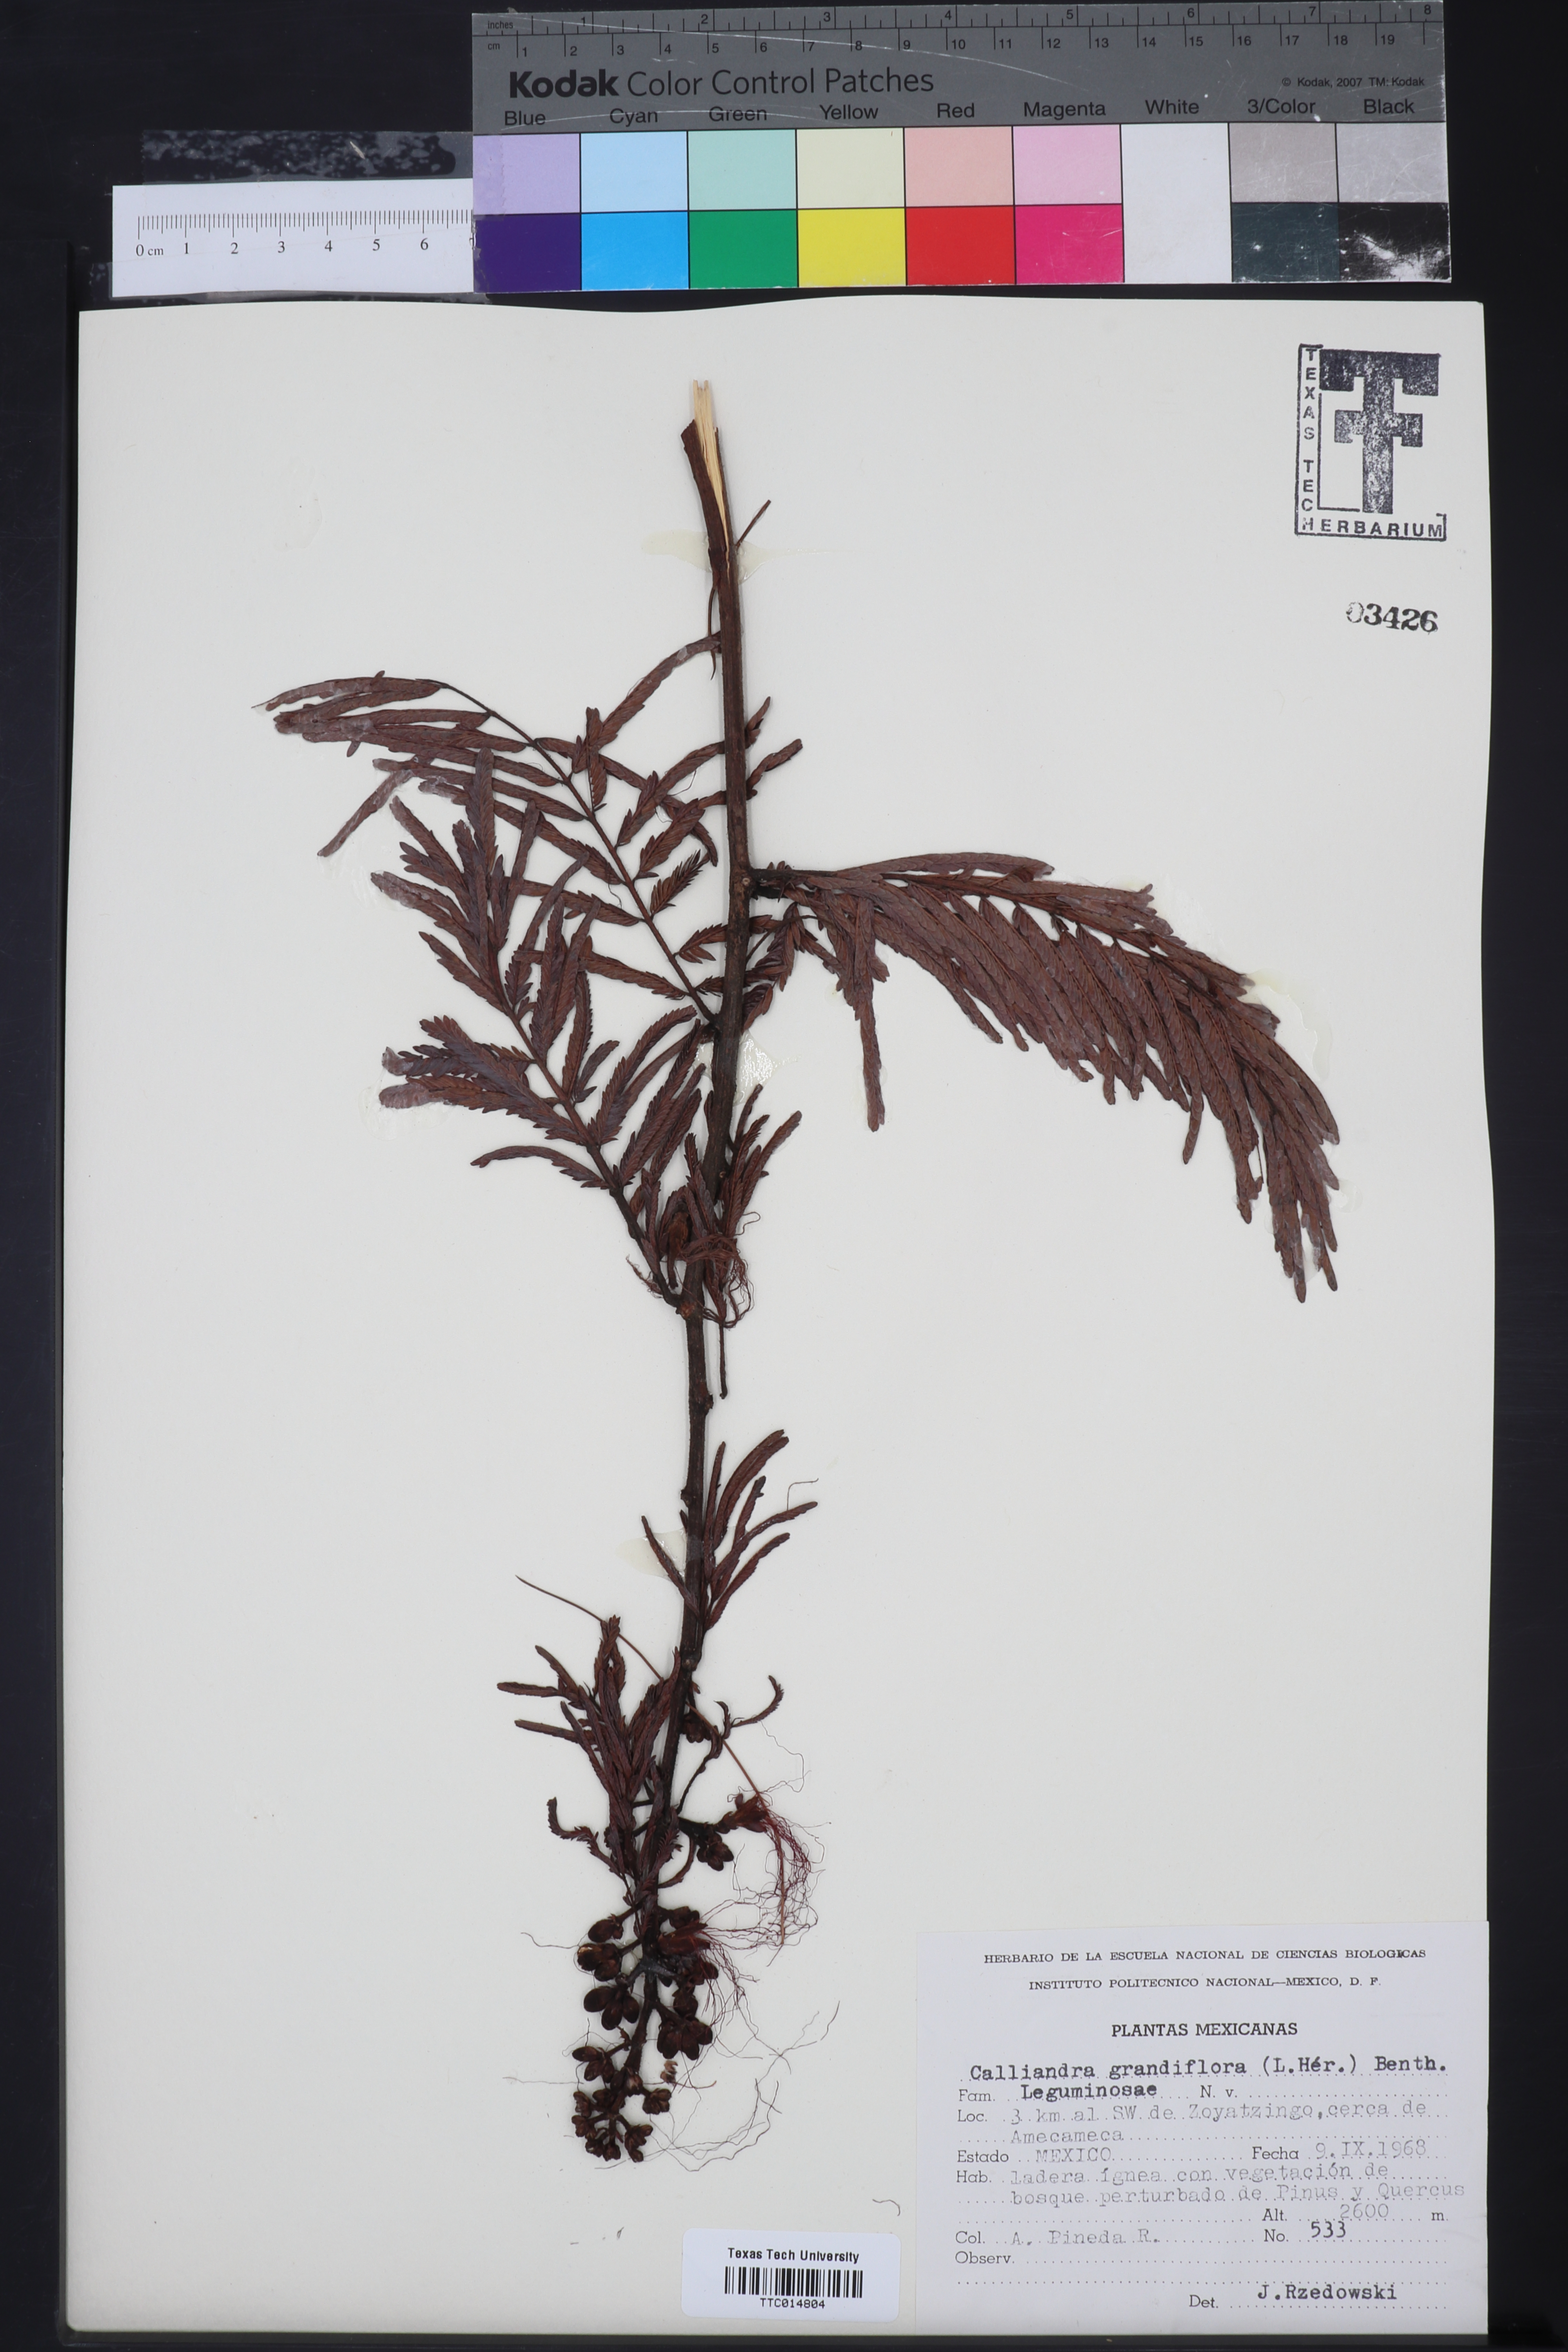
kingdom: Plantae
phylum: Tracheophyta
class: Magnoliopsida
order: Fabales
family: Fabaceae
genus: Calliandra
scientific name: Calliandra houstoniana
